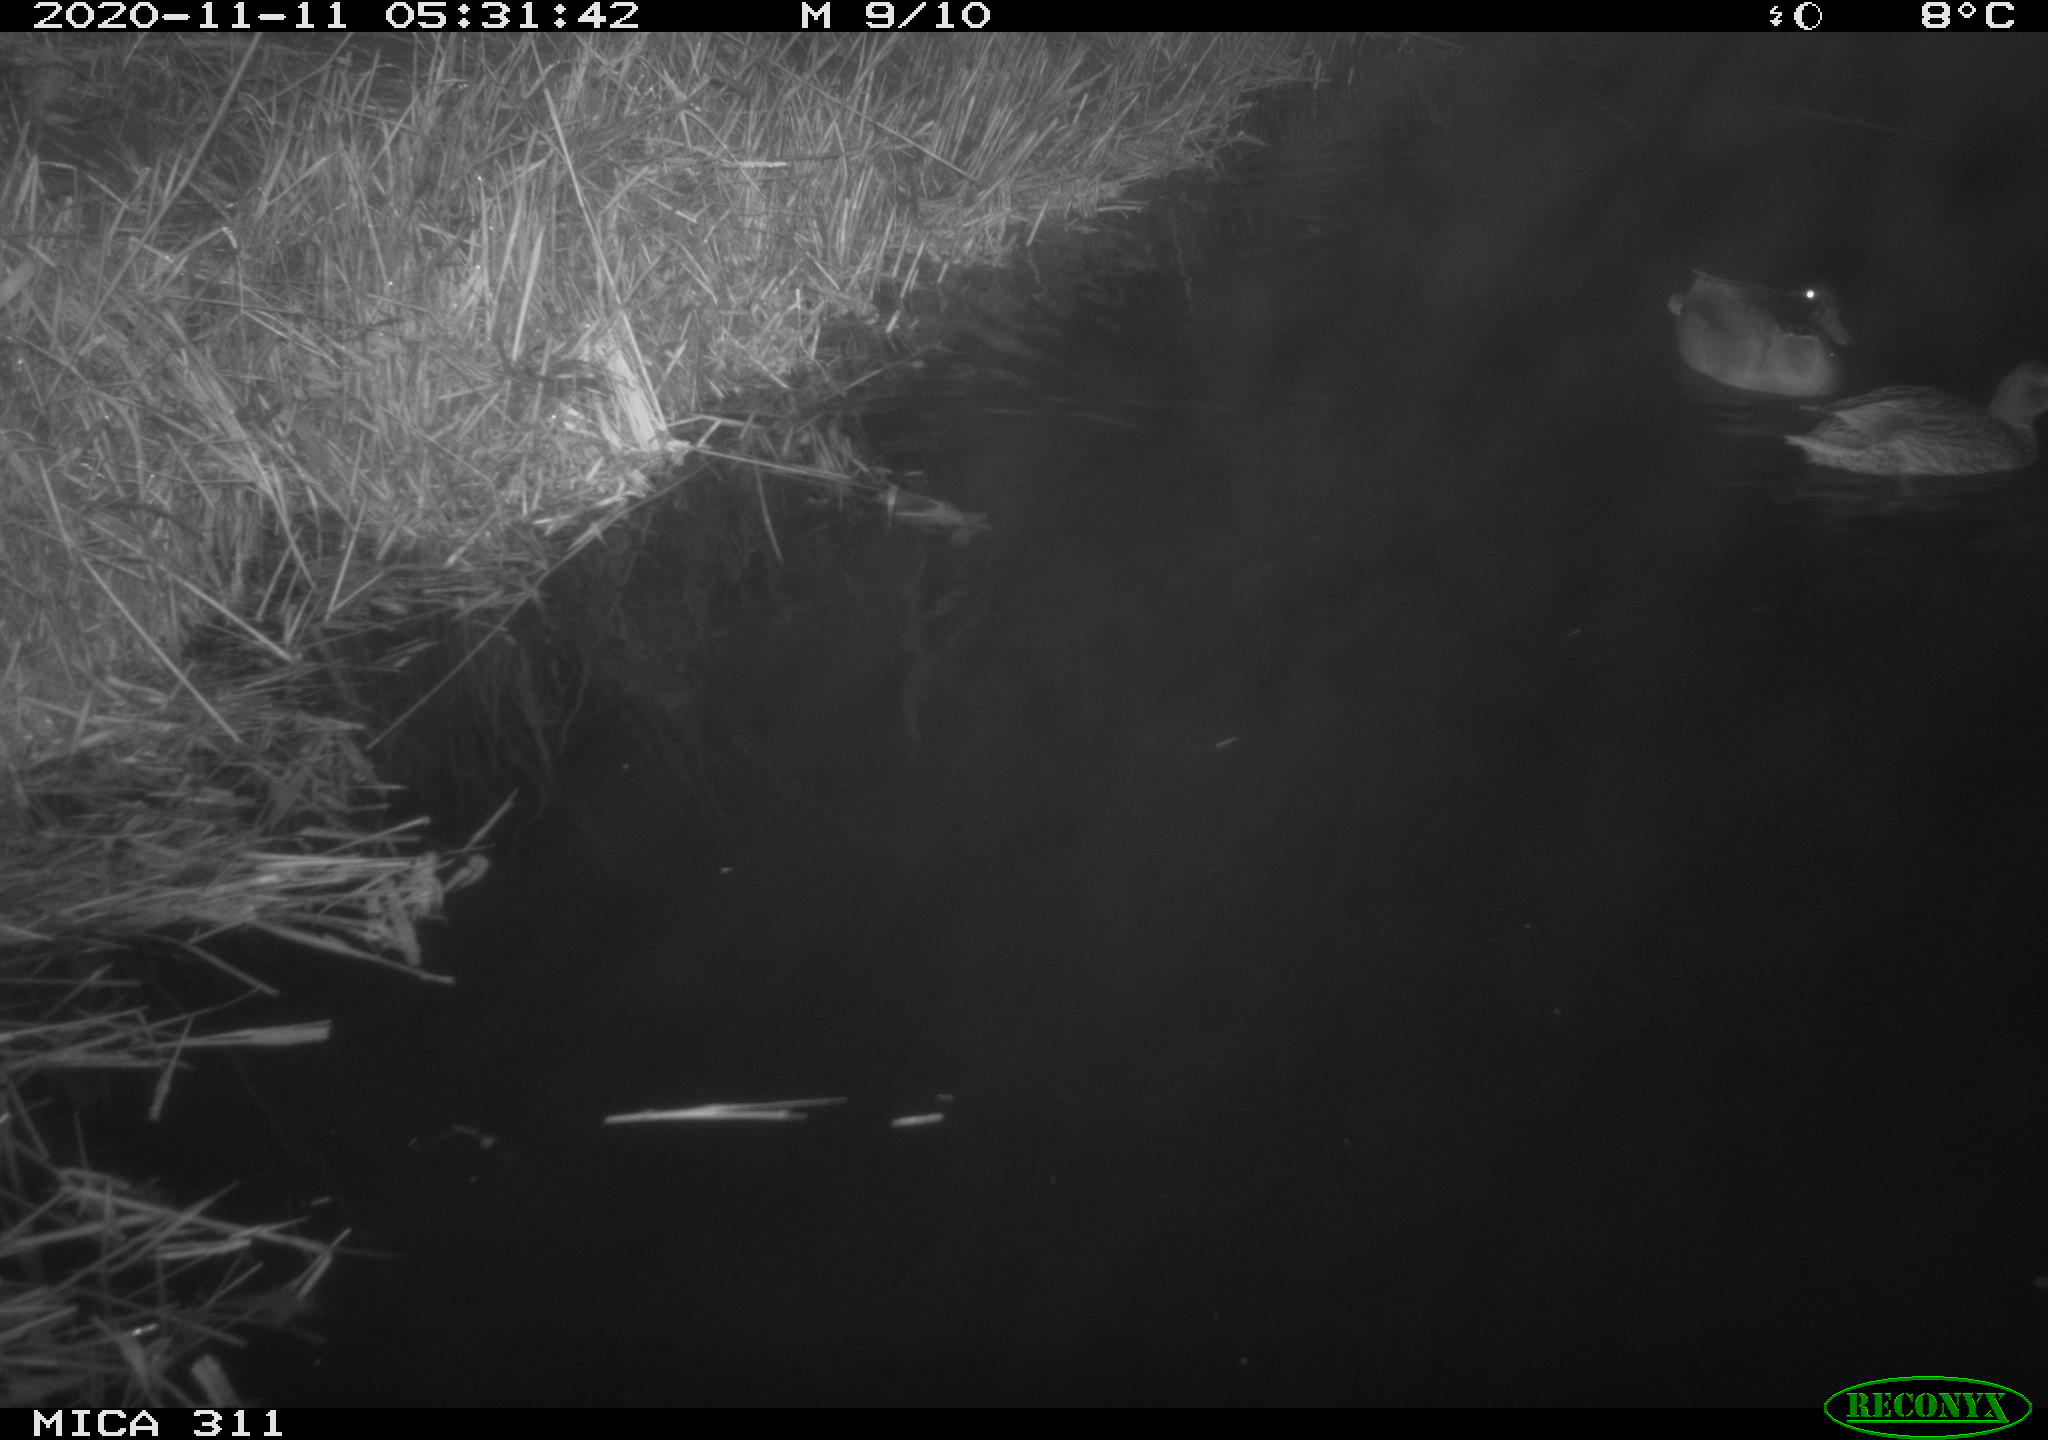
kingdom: Animalia
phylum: Chordata
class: Aves
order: Anseriformes
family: Anatidae
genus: Anas
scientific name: Anas platyrhynchos
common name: Mallard
